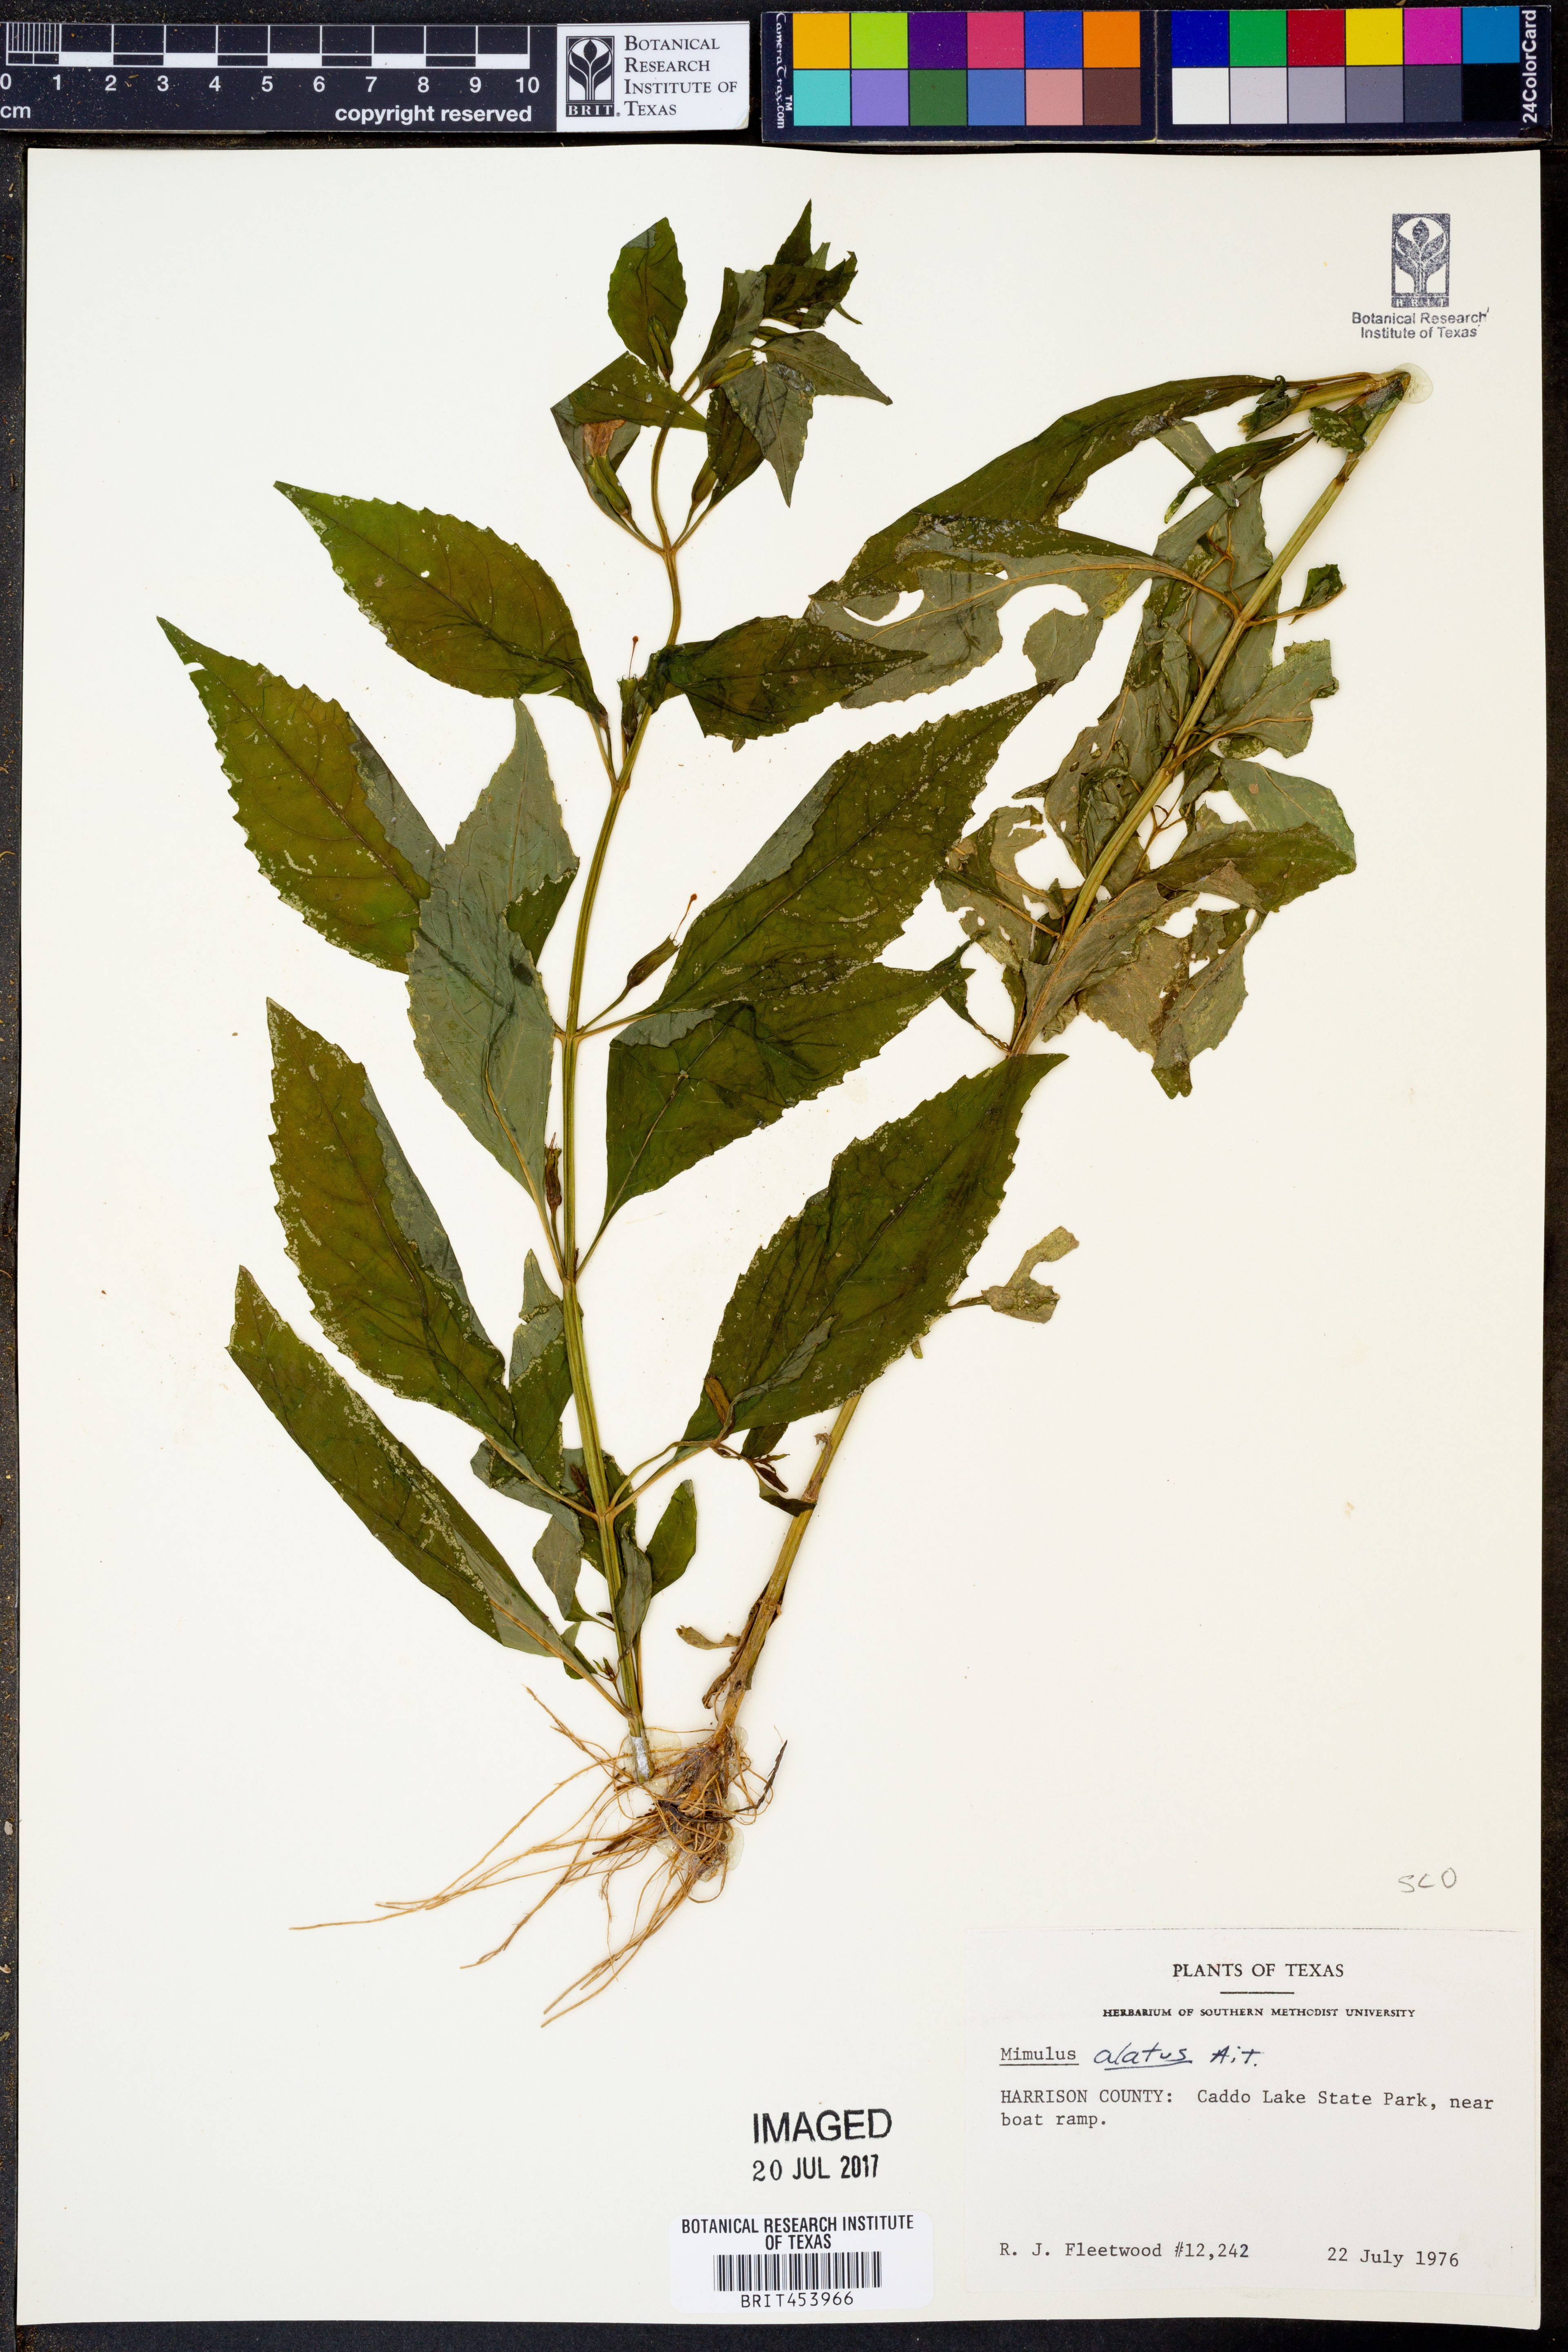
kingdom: Plantae
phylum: Tracheophyta
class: Magnoliopsida
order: Lamiales
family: Phrymaceae
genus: Mimulus
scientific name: Mimulus alatus
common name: Sharp-wing monkey-flower
